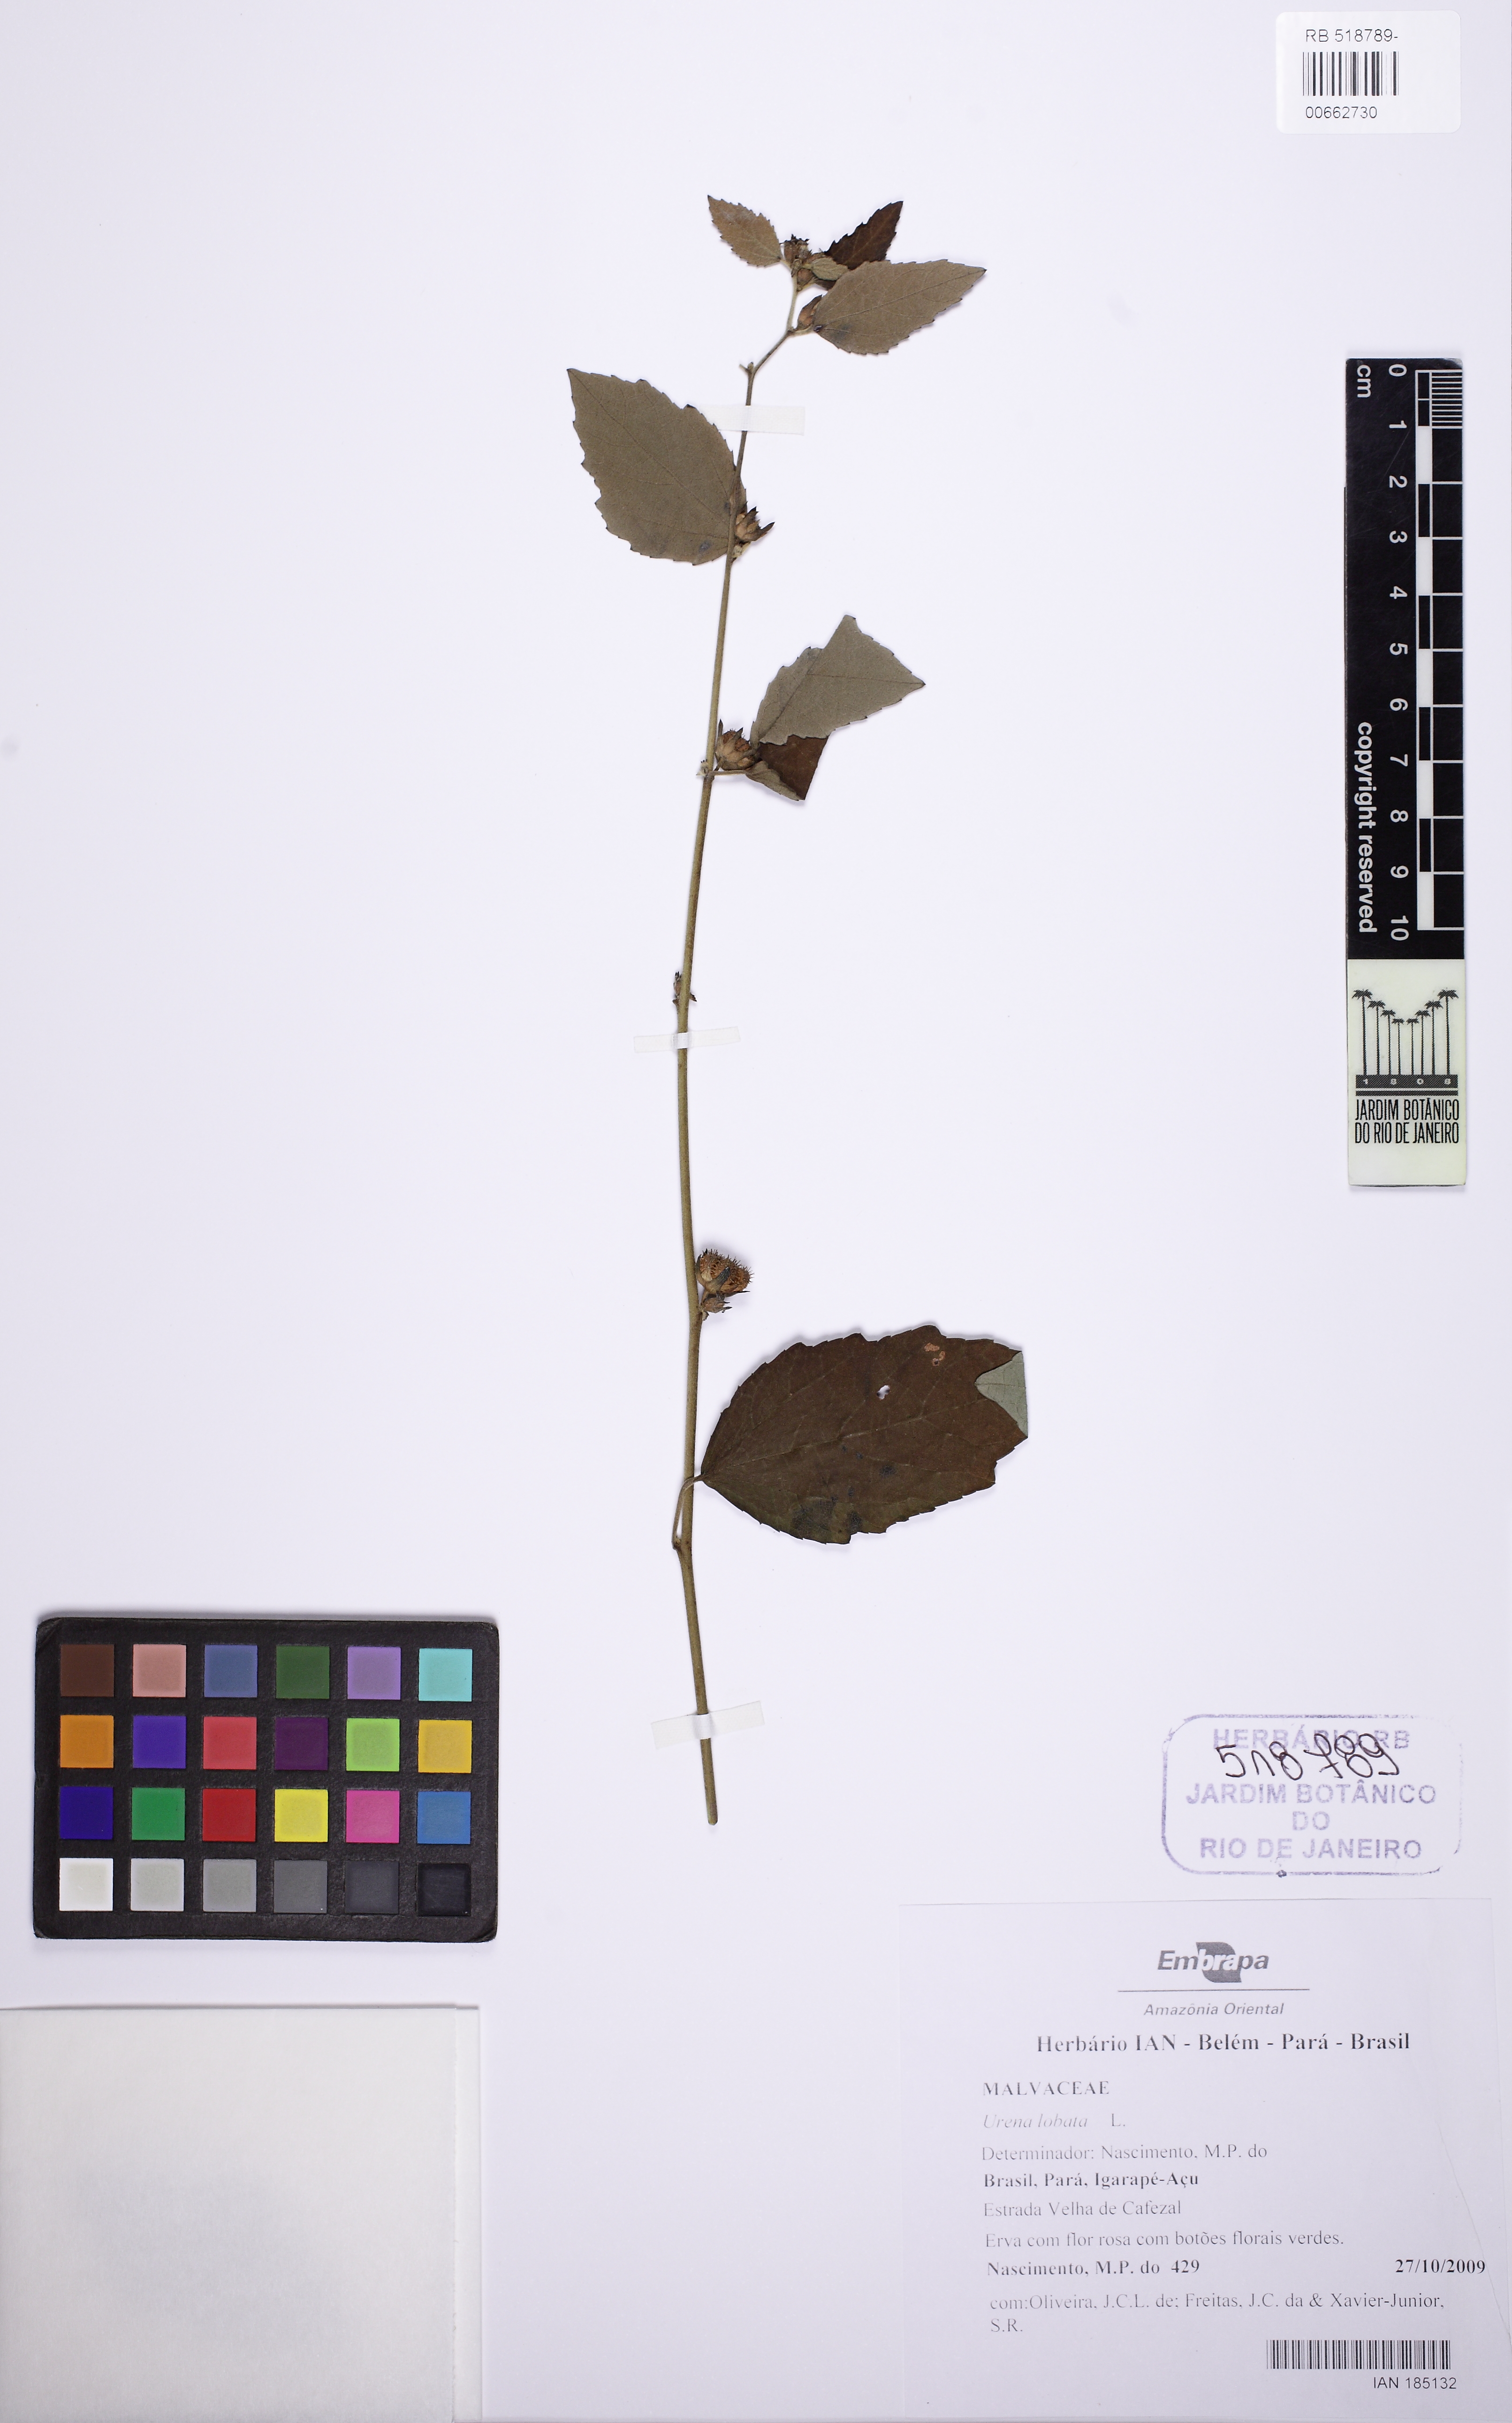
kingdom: Plantae
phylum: Tracheophyta
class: Magnoliopsida
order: Malvales
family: Malvaceae
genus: Urena
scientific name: Urena lobata
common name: Caesarweed
